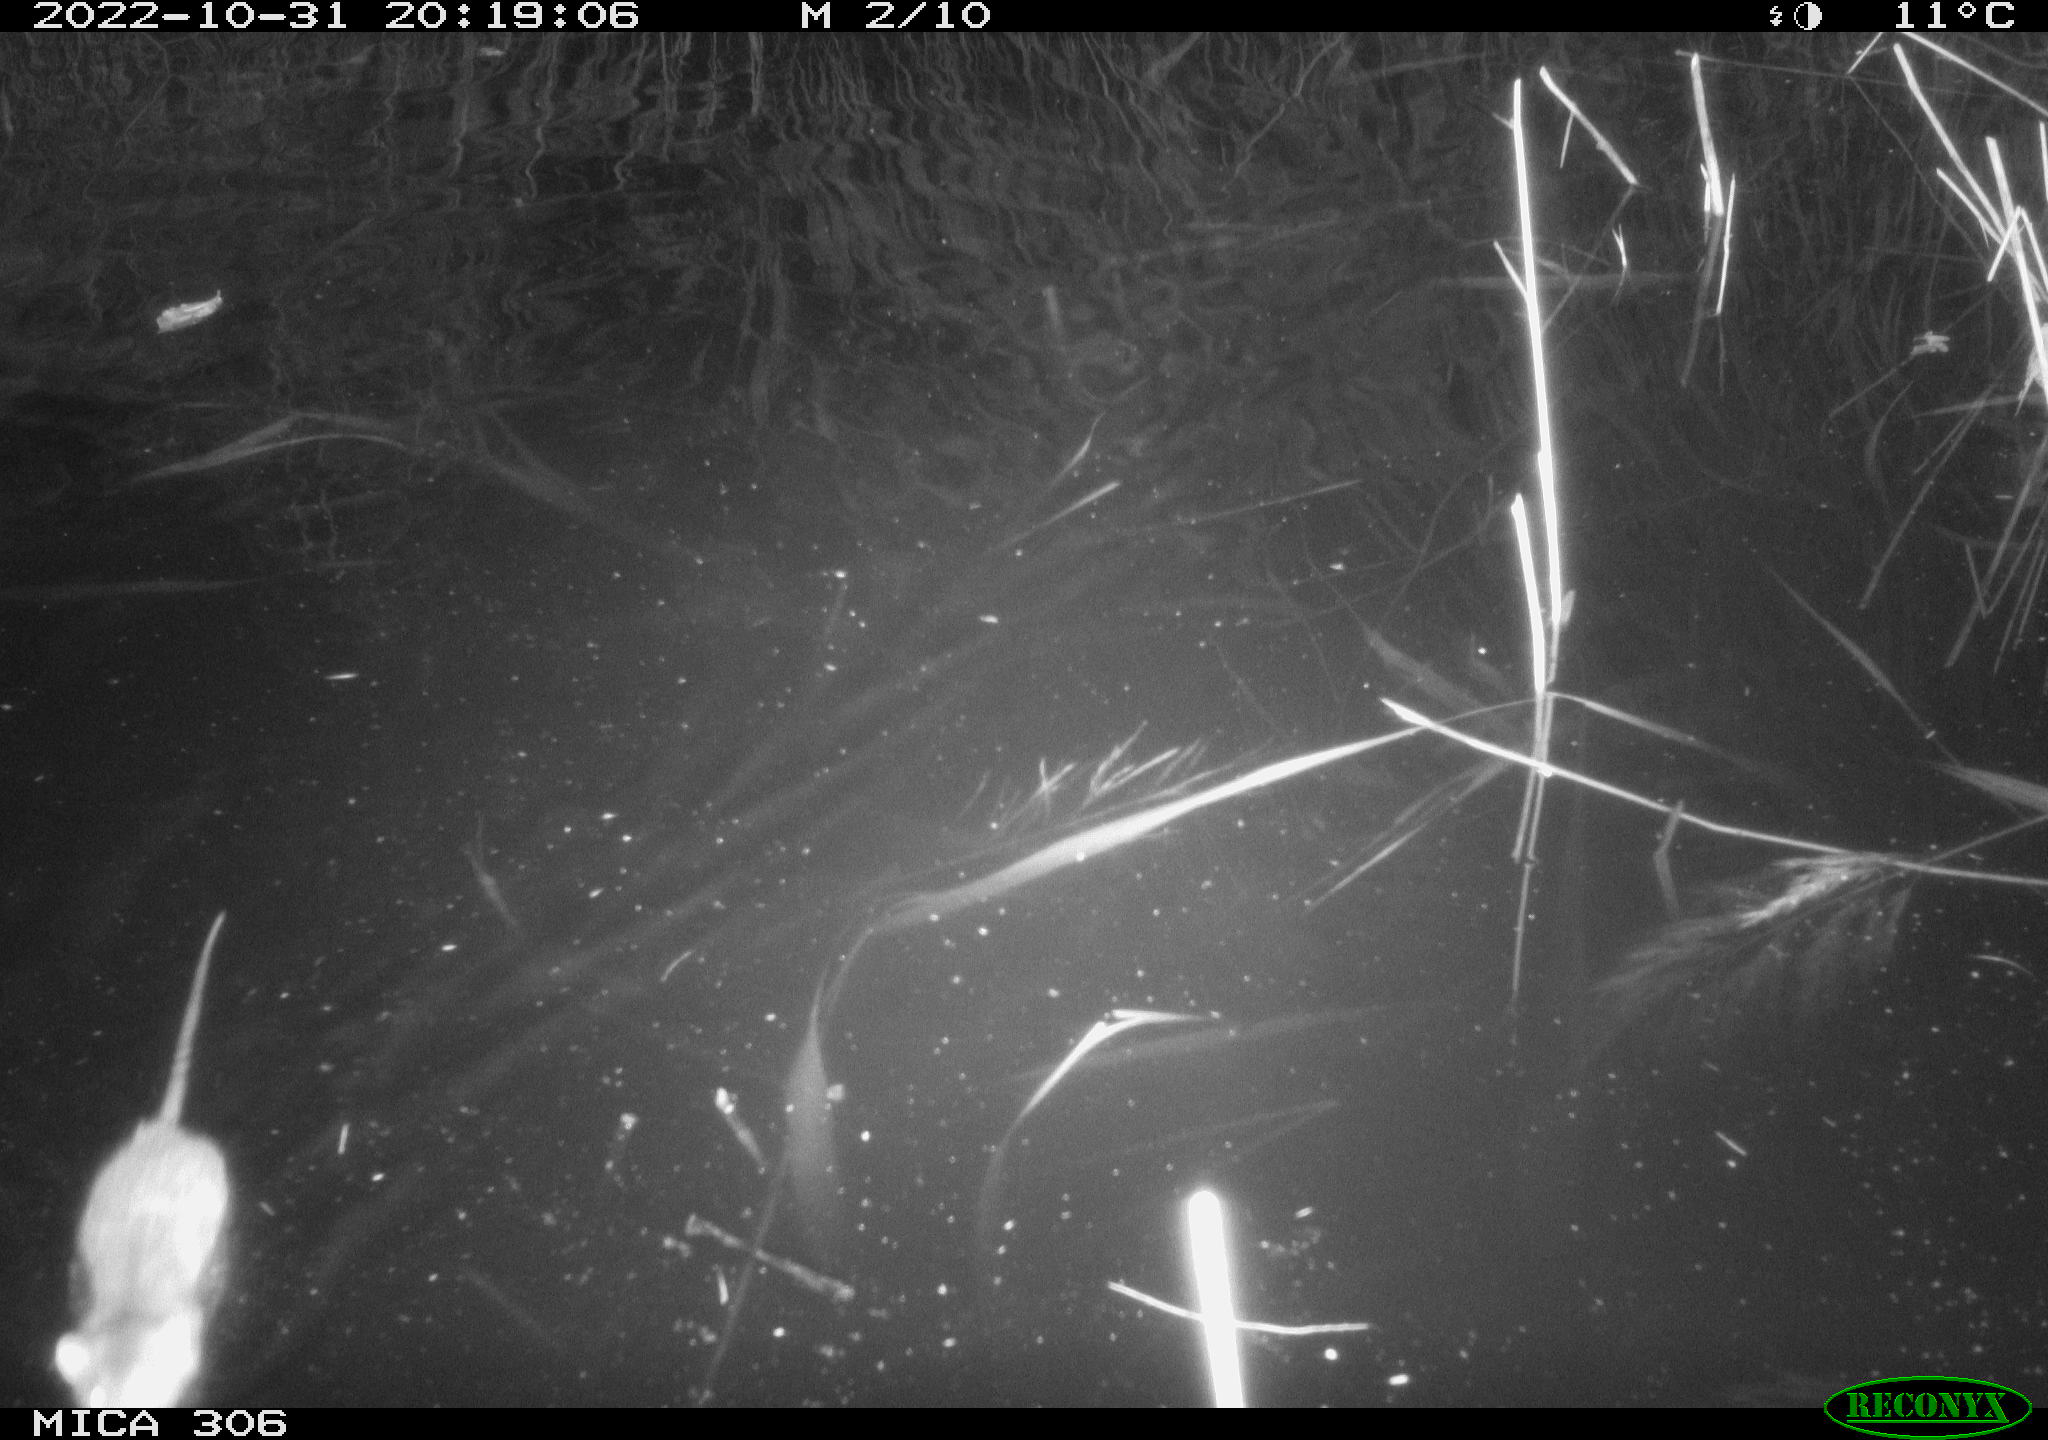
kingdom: Animalia
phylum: Chordata
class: Mammalia
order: Rodentia
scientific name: Rodentia
